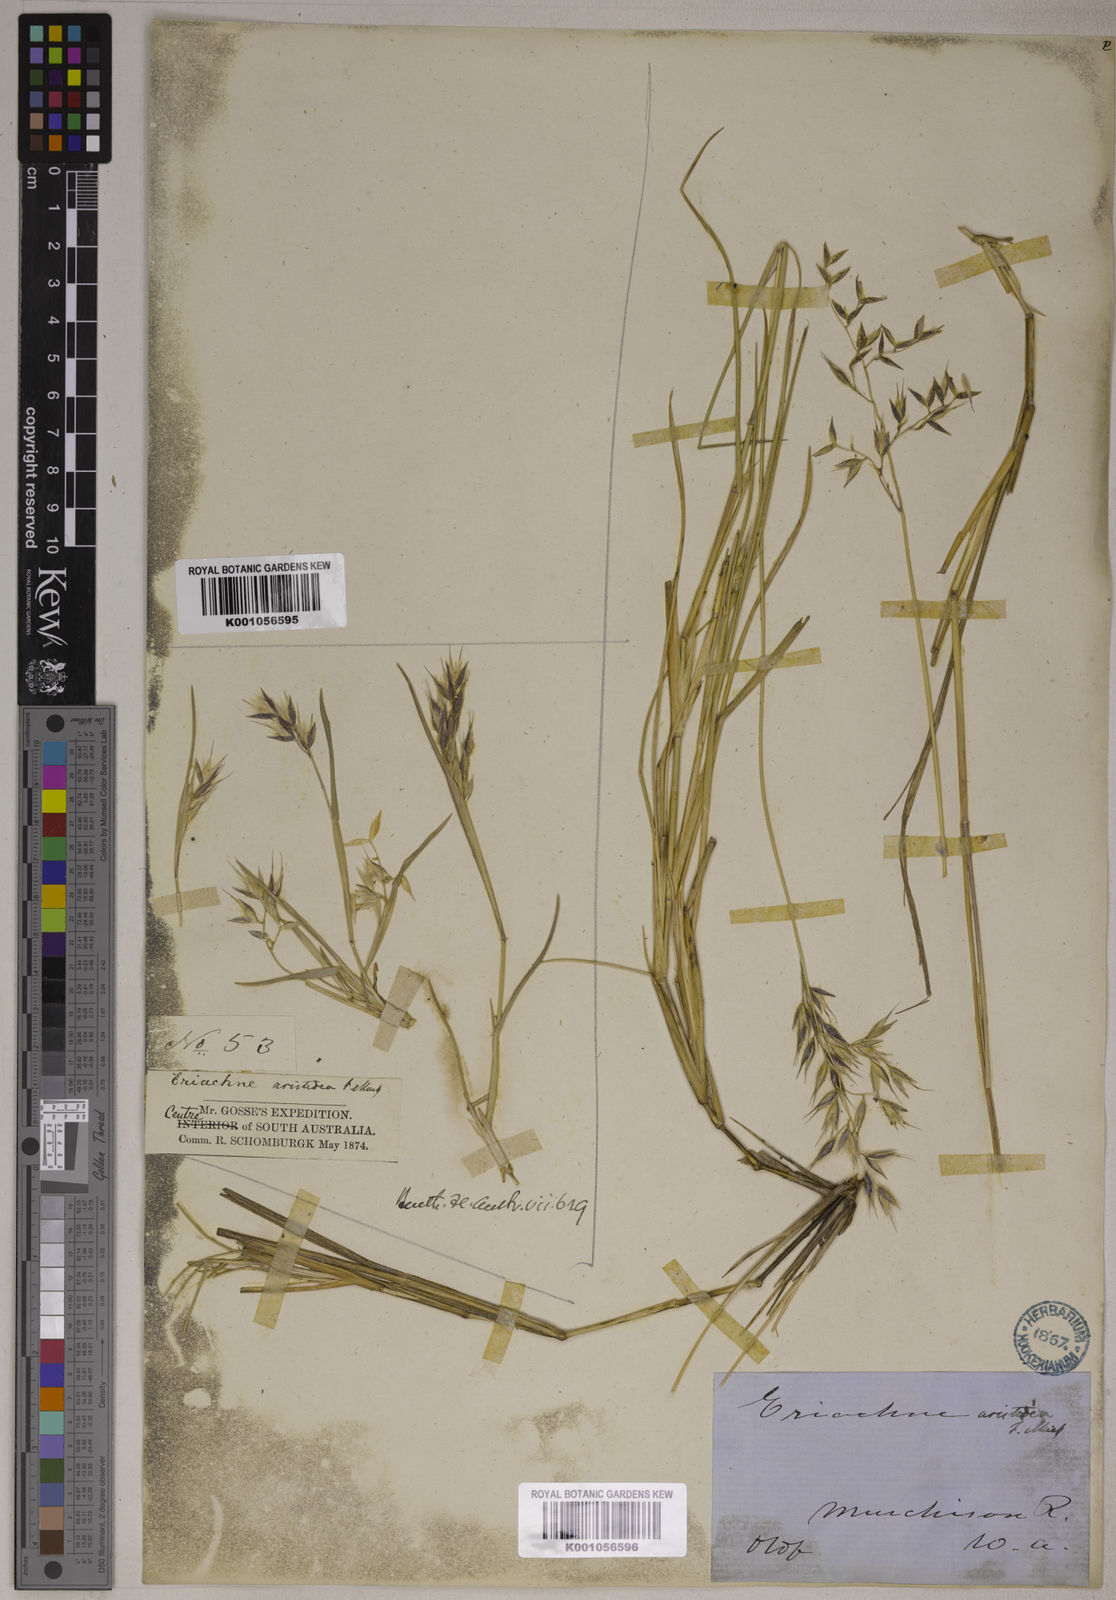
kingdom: Plantae
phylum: Tracheophyta
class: Liliopsida
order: Poales
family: Poaceae
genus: Eriachne
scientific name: Eriachne aristidea
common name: Three-awn wanderrie grass
